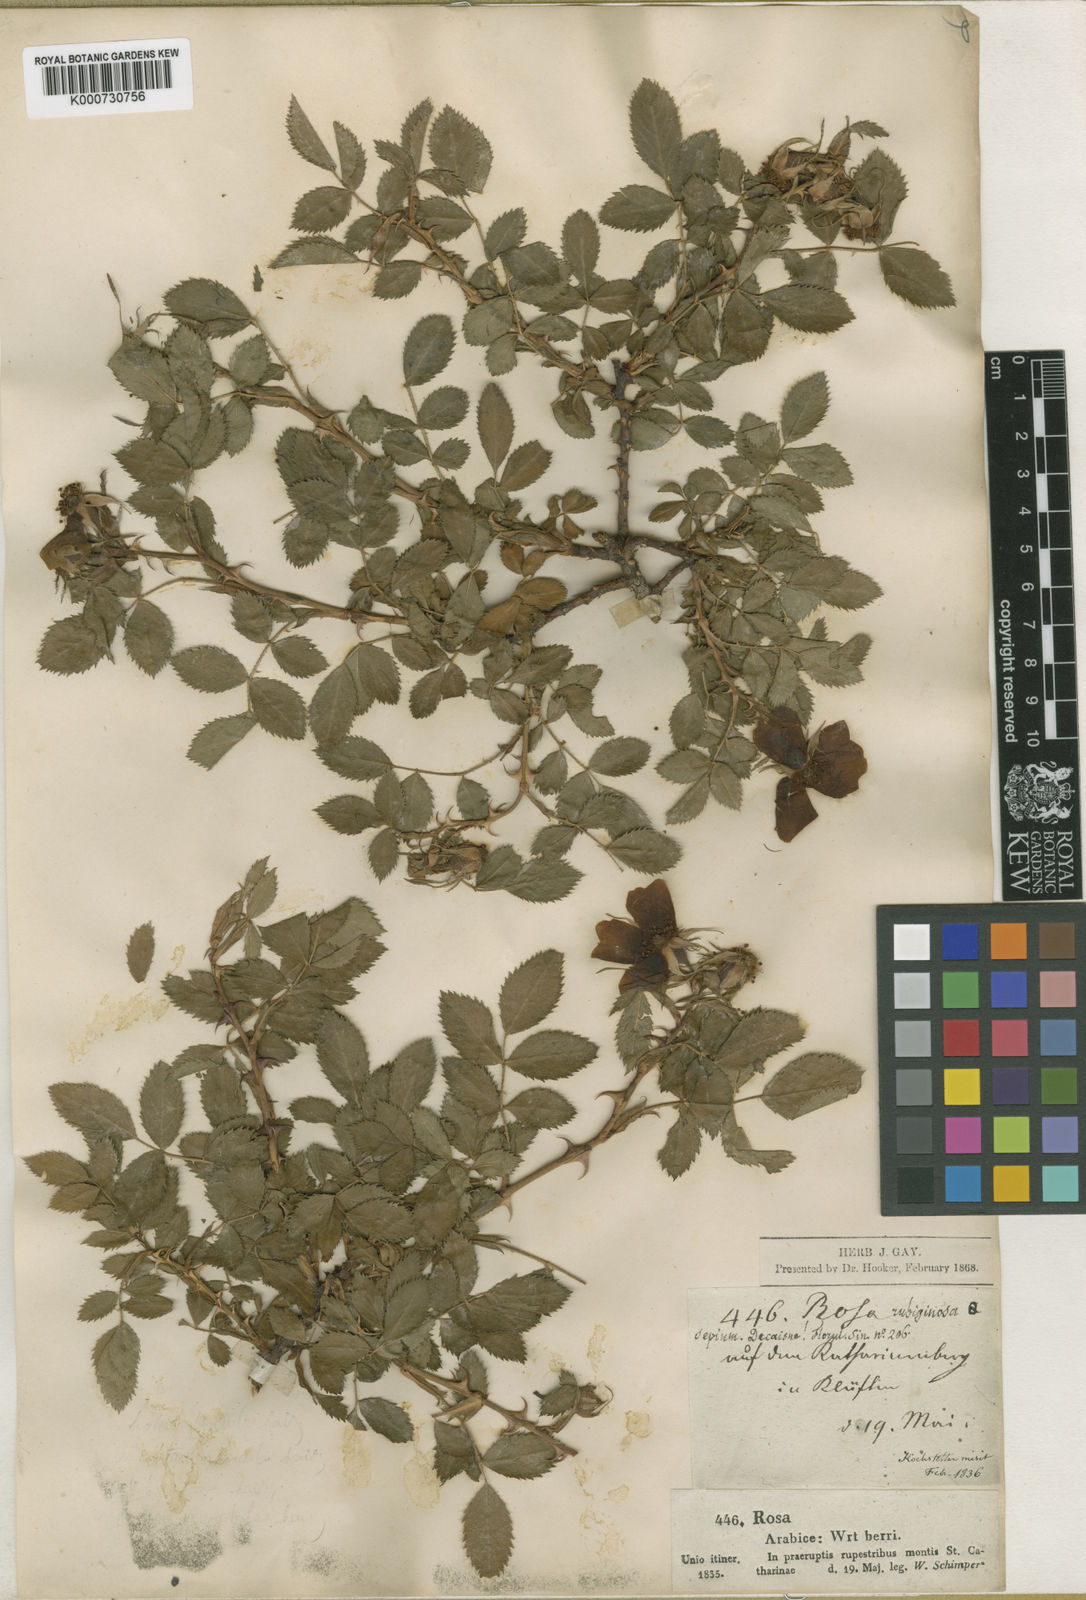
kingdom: Plantae
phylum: Tracheophyta
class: Magnoliopsida
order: Rosales
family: Rosaceae
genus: Rosa
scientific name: Rosa
